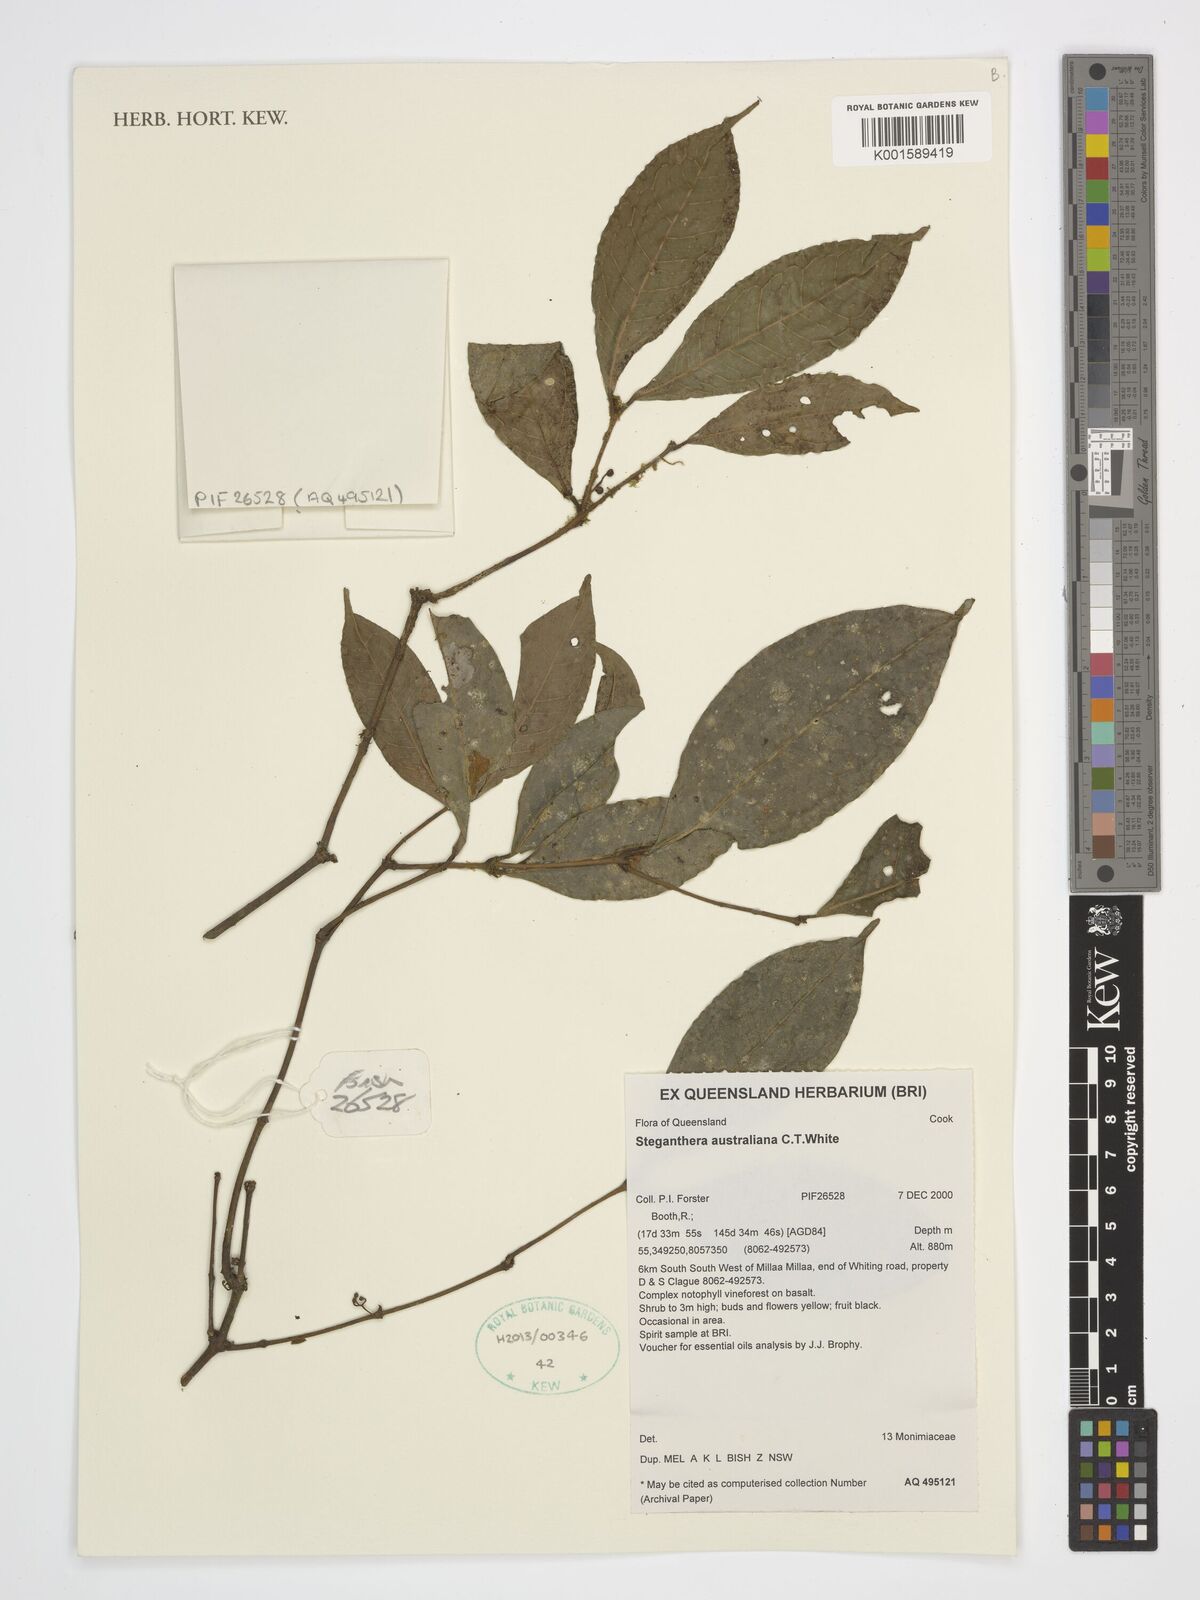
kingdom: Plantae
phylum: Tracheophyta
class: Magnoliopsida
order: Laurales
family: Monimiaceae
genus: Steganthera
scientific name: Steganthera australiana
